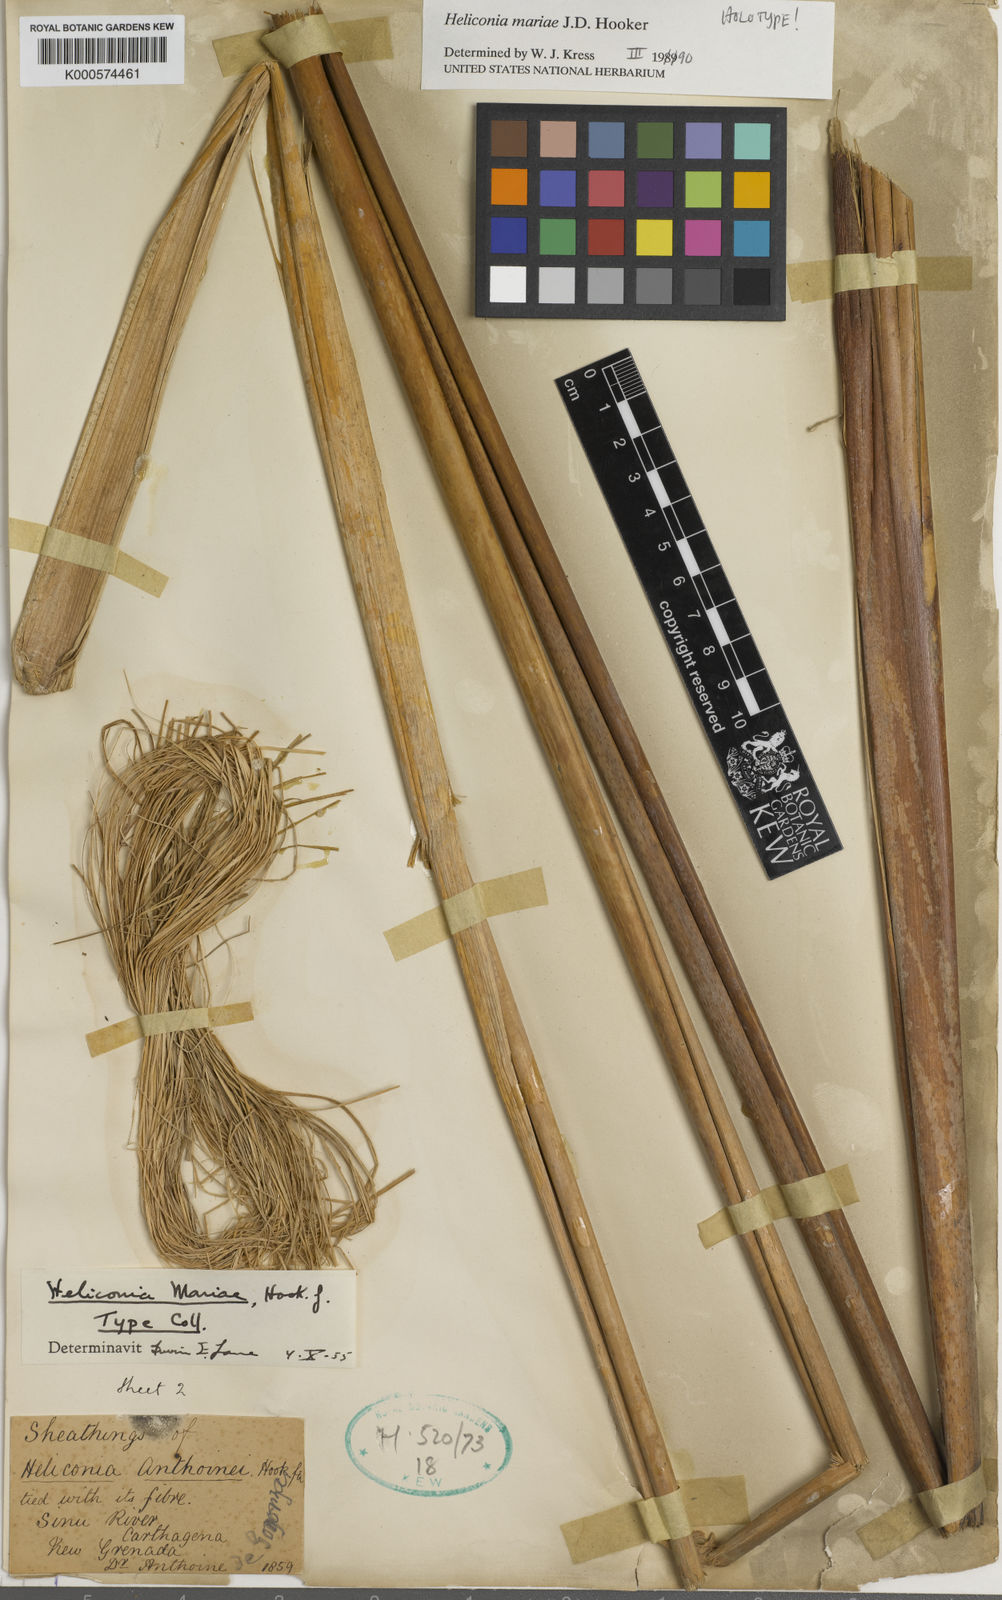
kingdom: Plantae
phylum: Tracheophyta
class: Liliopsida
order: Zingiberales
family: Heliconiaceae
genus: Heliconia
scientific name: Heliconia mariae
